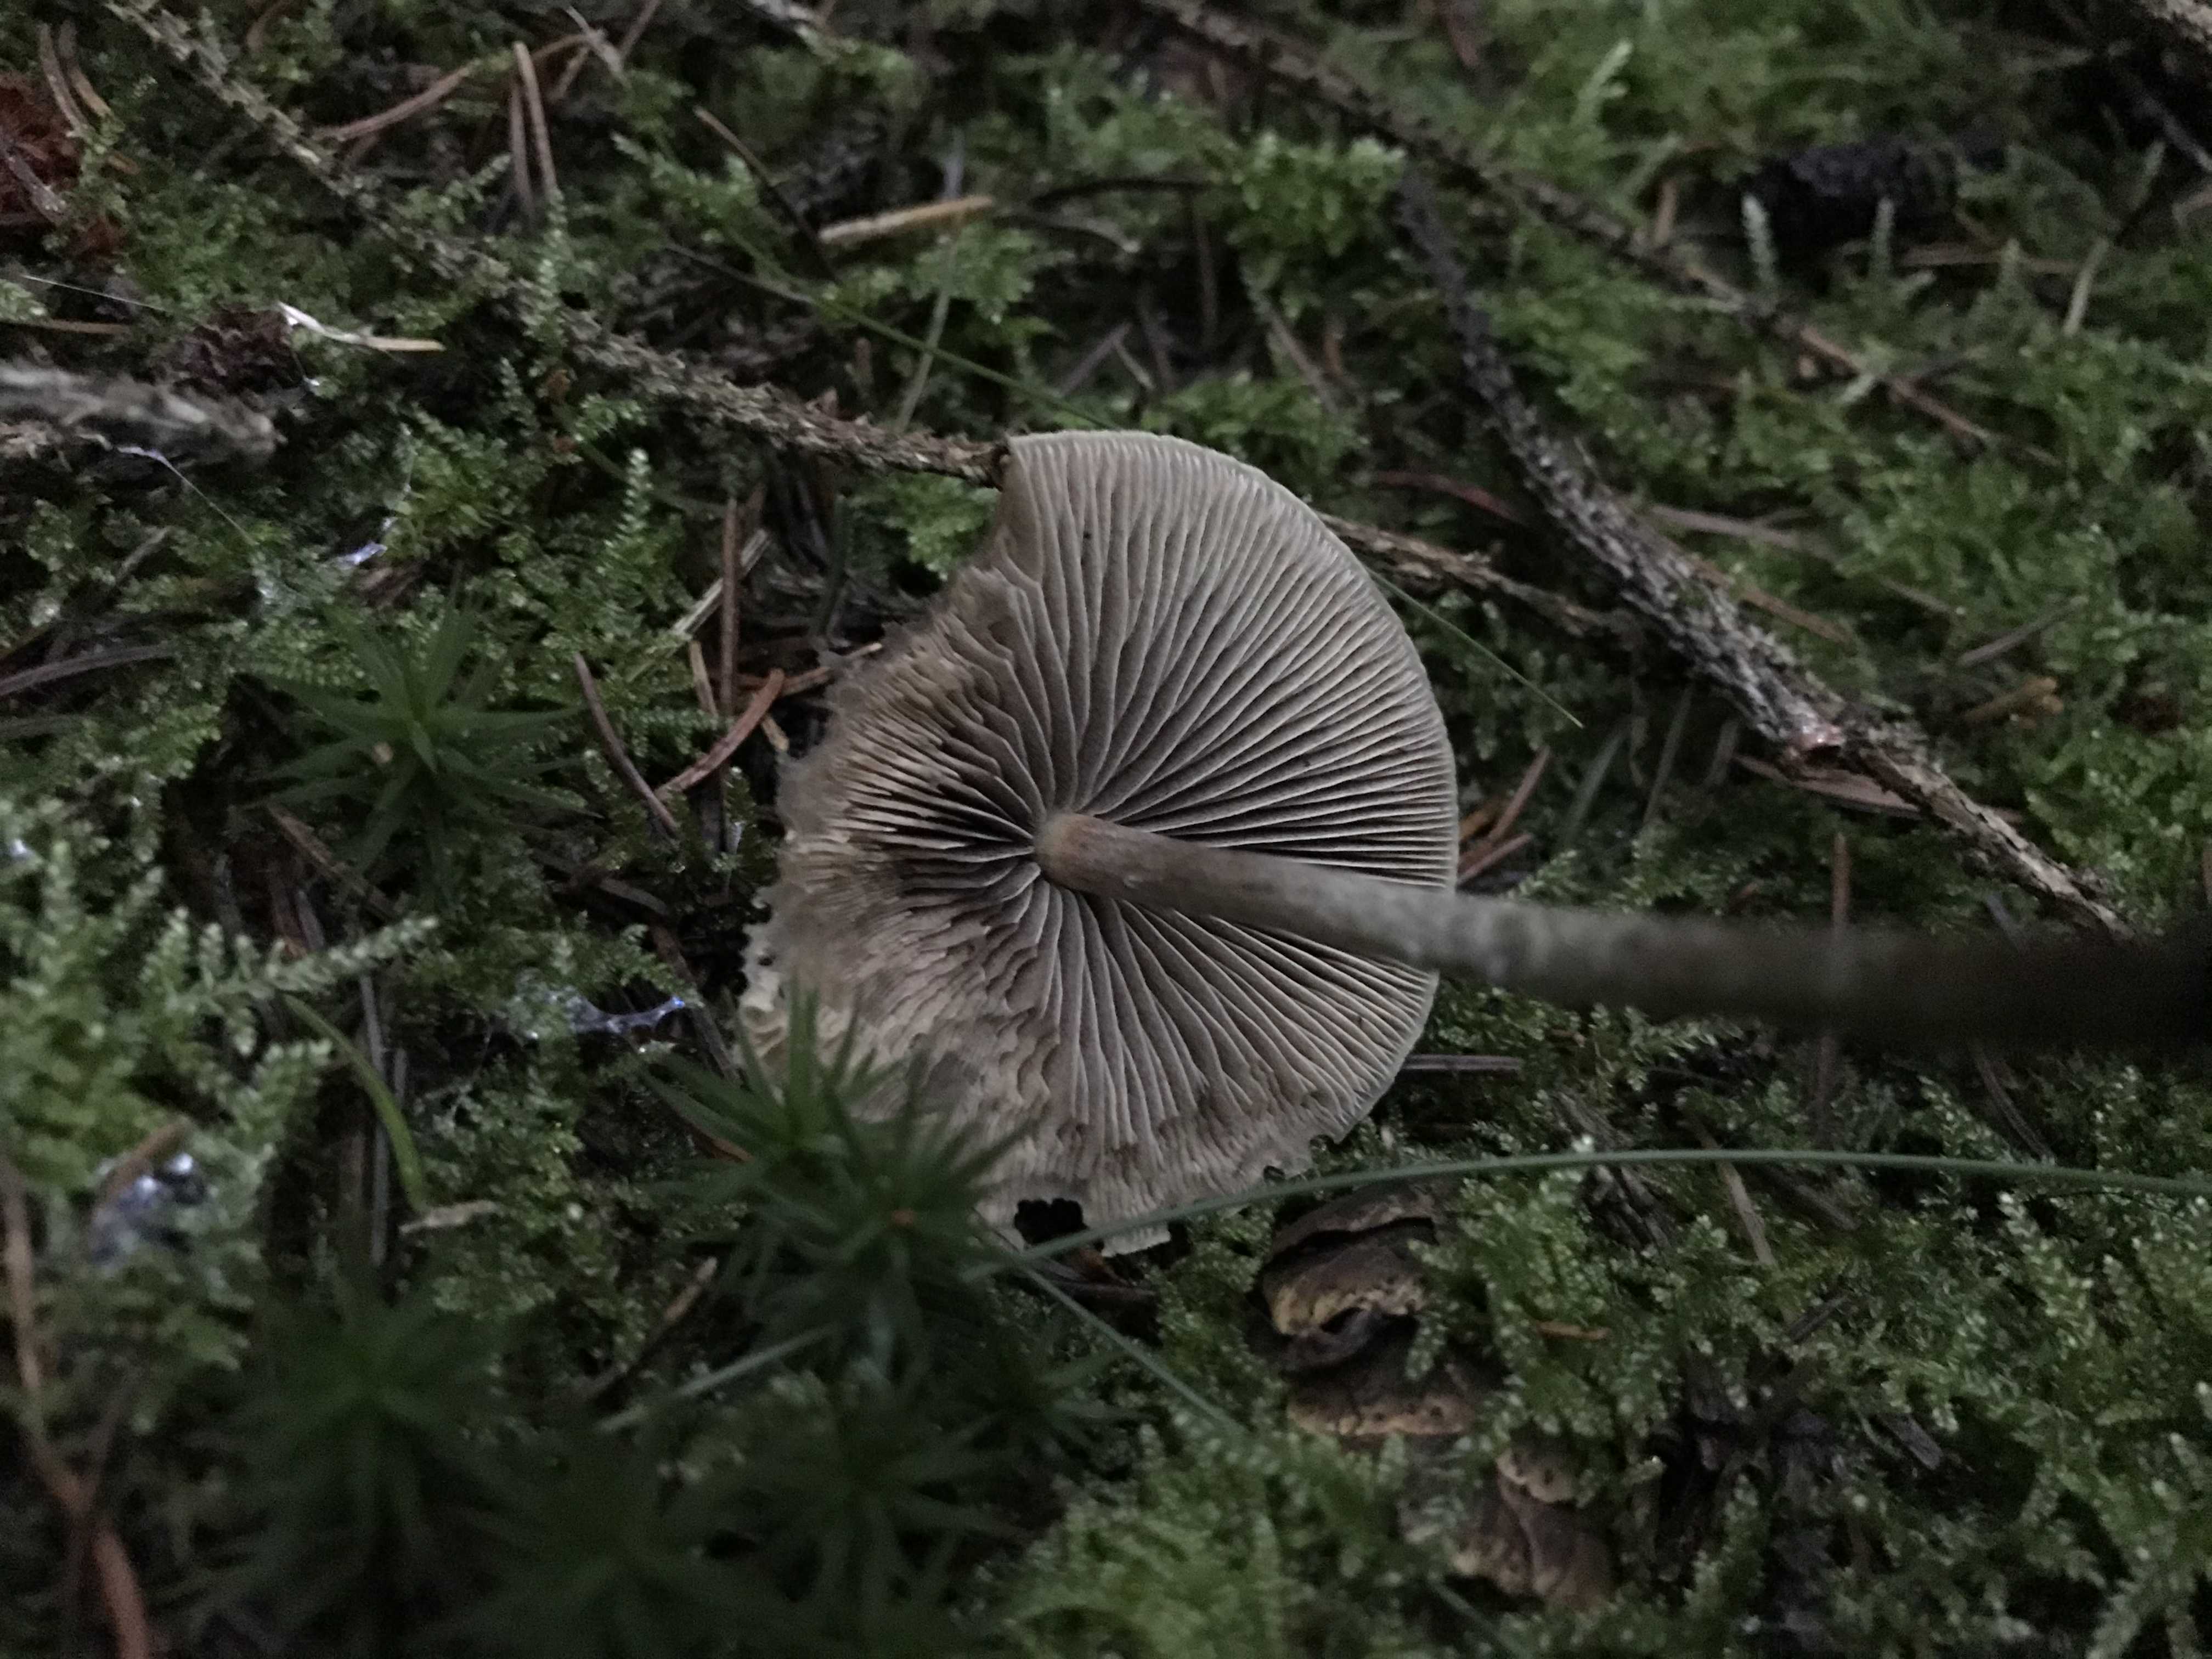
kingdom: Fungi
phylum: Basidiomycota
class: Agaricomycetes
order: Agaricales
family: Strophariaceae
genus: Hypholoma
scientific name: Hypholoma marginatum
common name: enlig svovlhat
